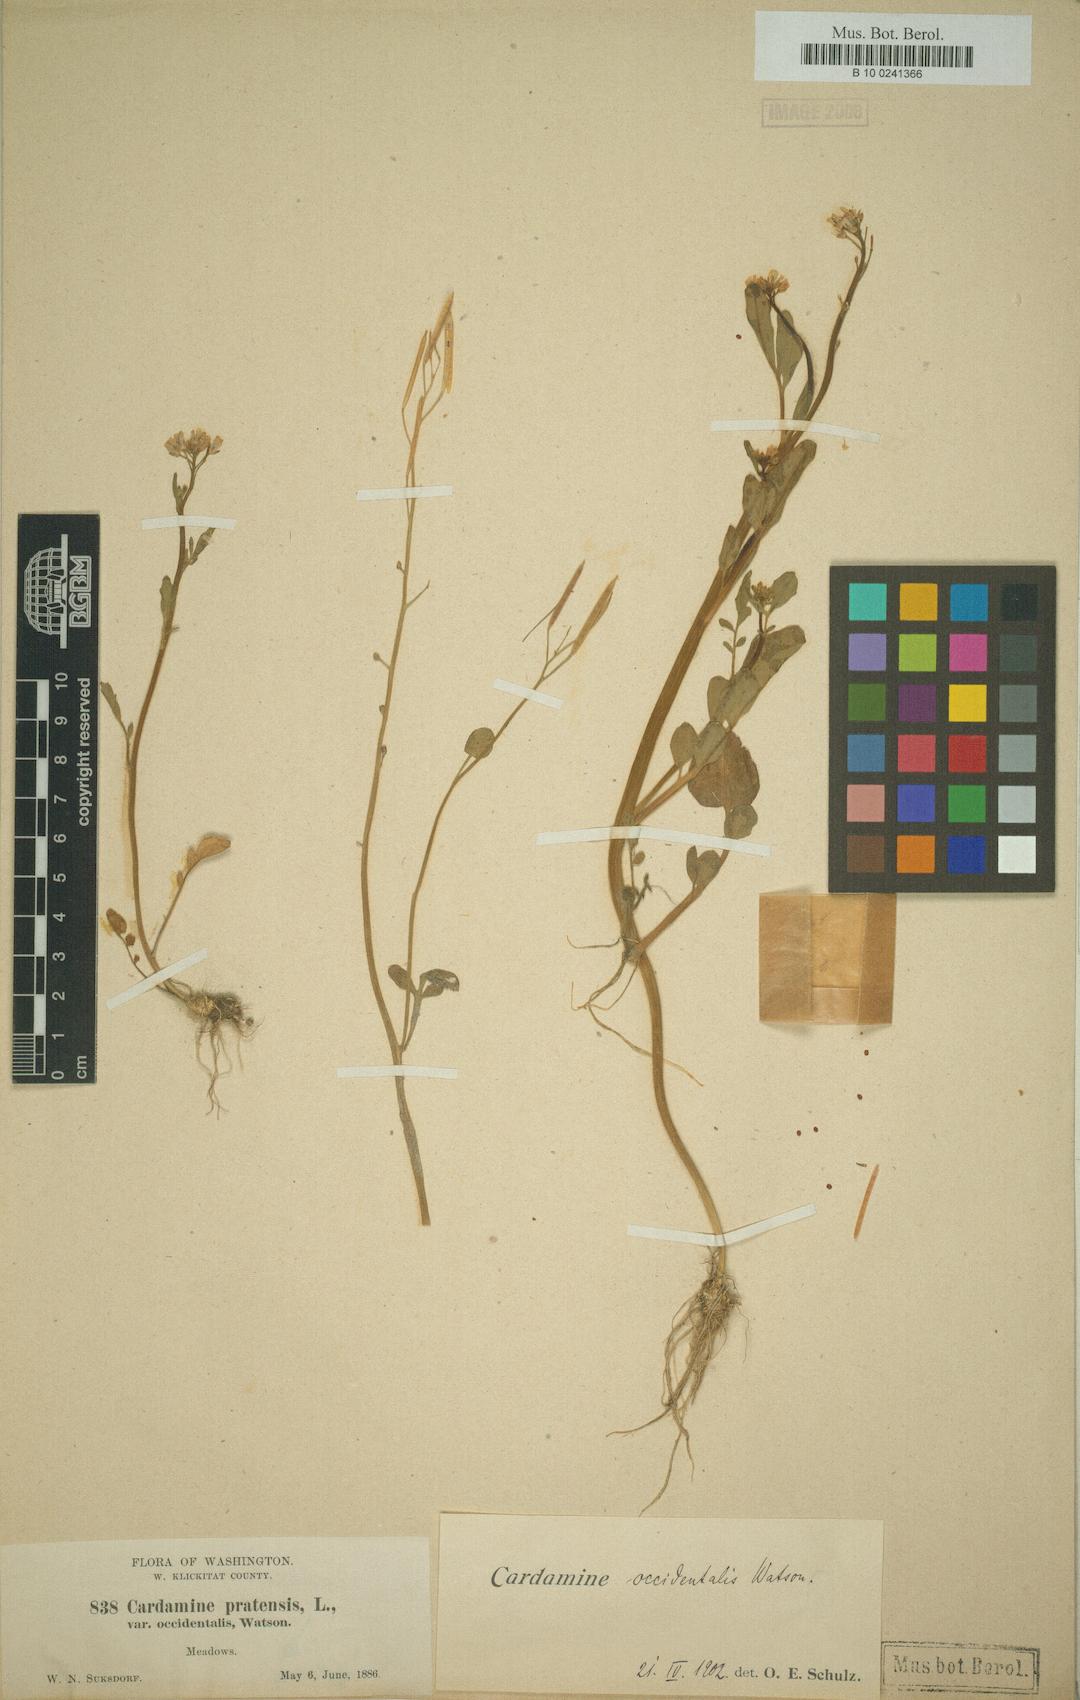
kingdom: Plantae
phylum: Tracheophyta
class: Magnoliopsida
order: Brassicales
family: Brassicaceae
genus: Cardamine
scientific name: Cardamine occidentalis
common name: Big western bittercress
